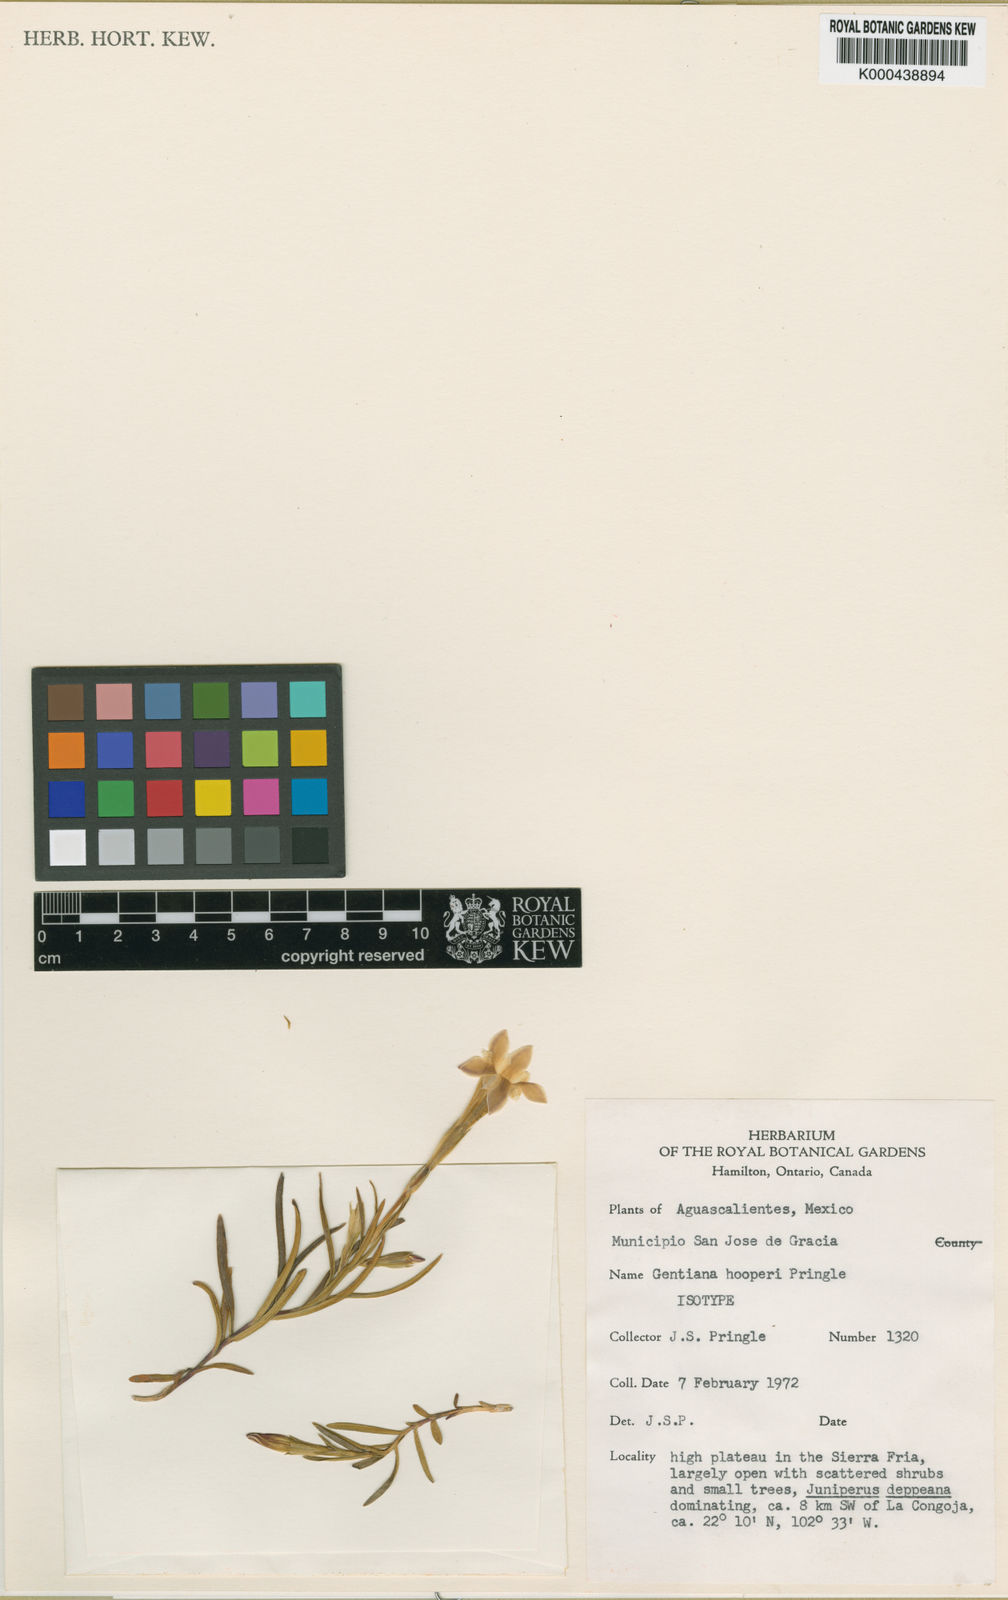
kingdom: Plantae
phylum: Tracheophyta
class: Magnoliopsida
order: Gentianales
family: Gentianaceae
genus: Gentiana
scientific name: Gentiana hooperi
